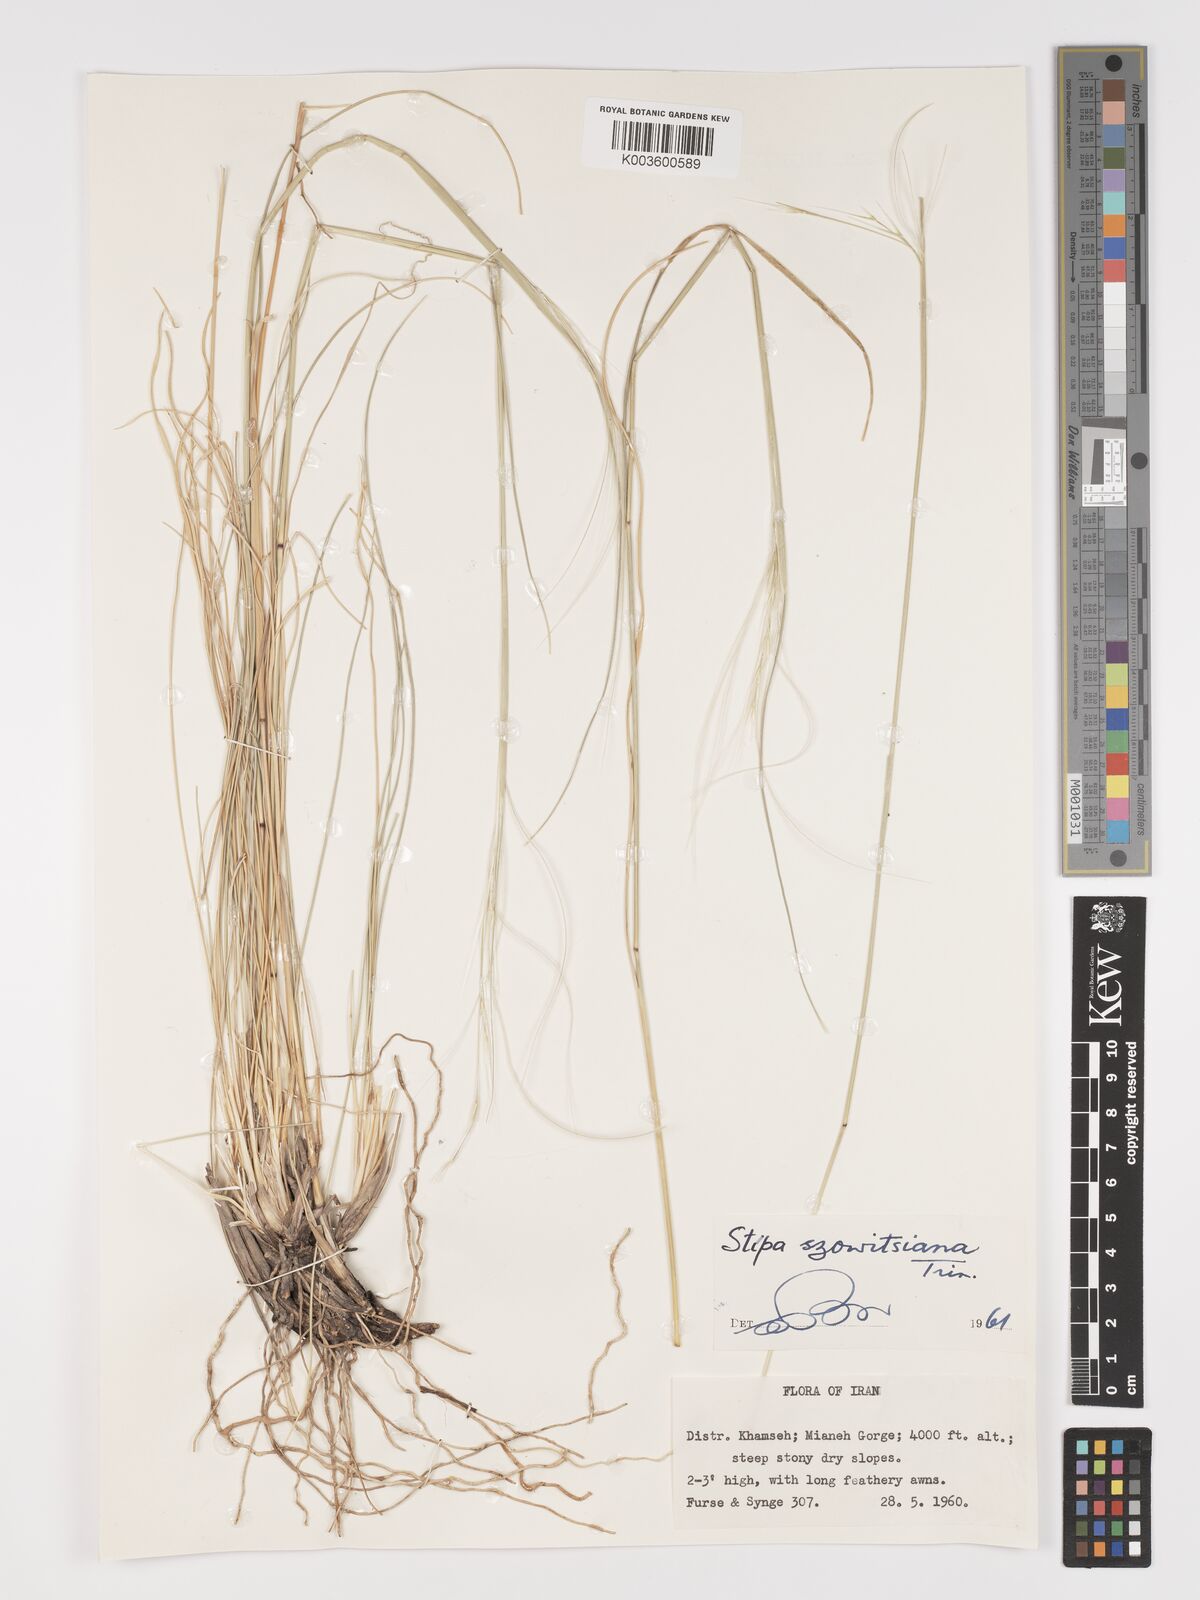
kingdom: Plantae
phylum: Tracheophyta
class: Liliopsida
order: Poales
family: Poaceae
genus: Stipa
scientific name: Stipa barbata
